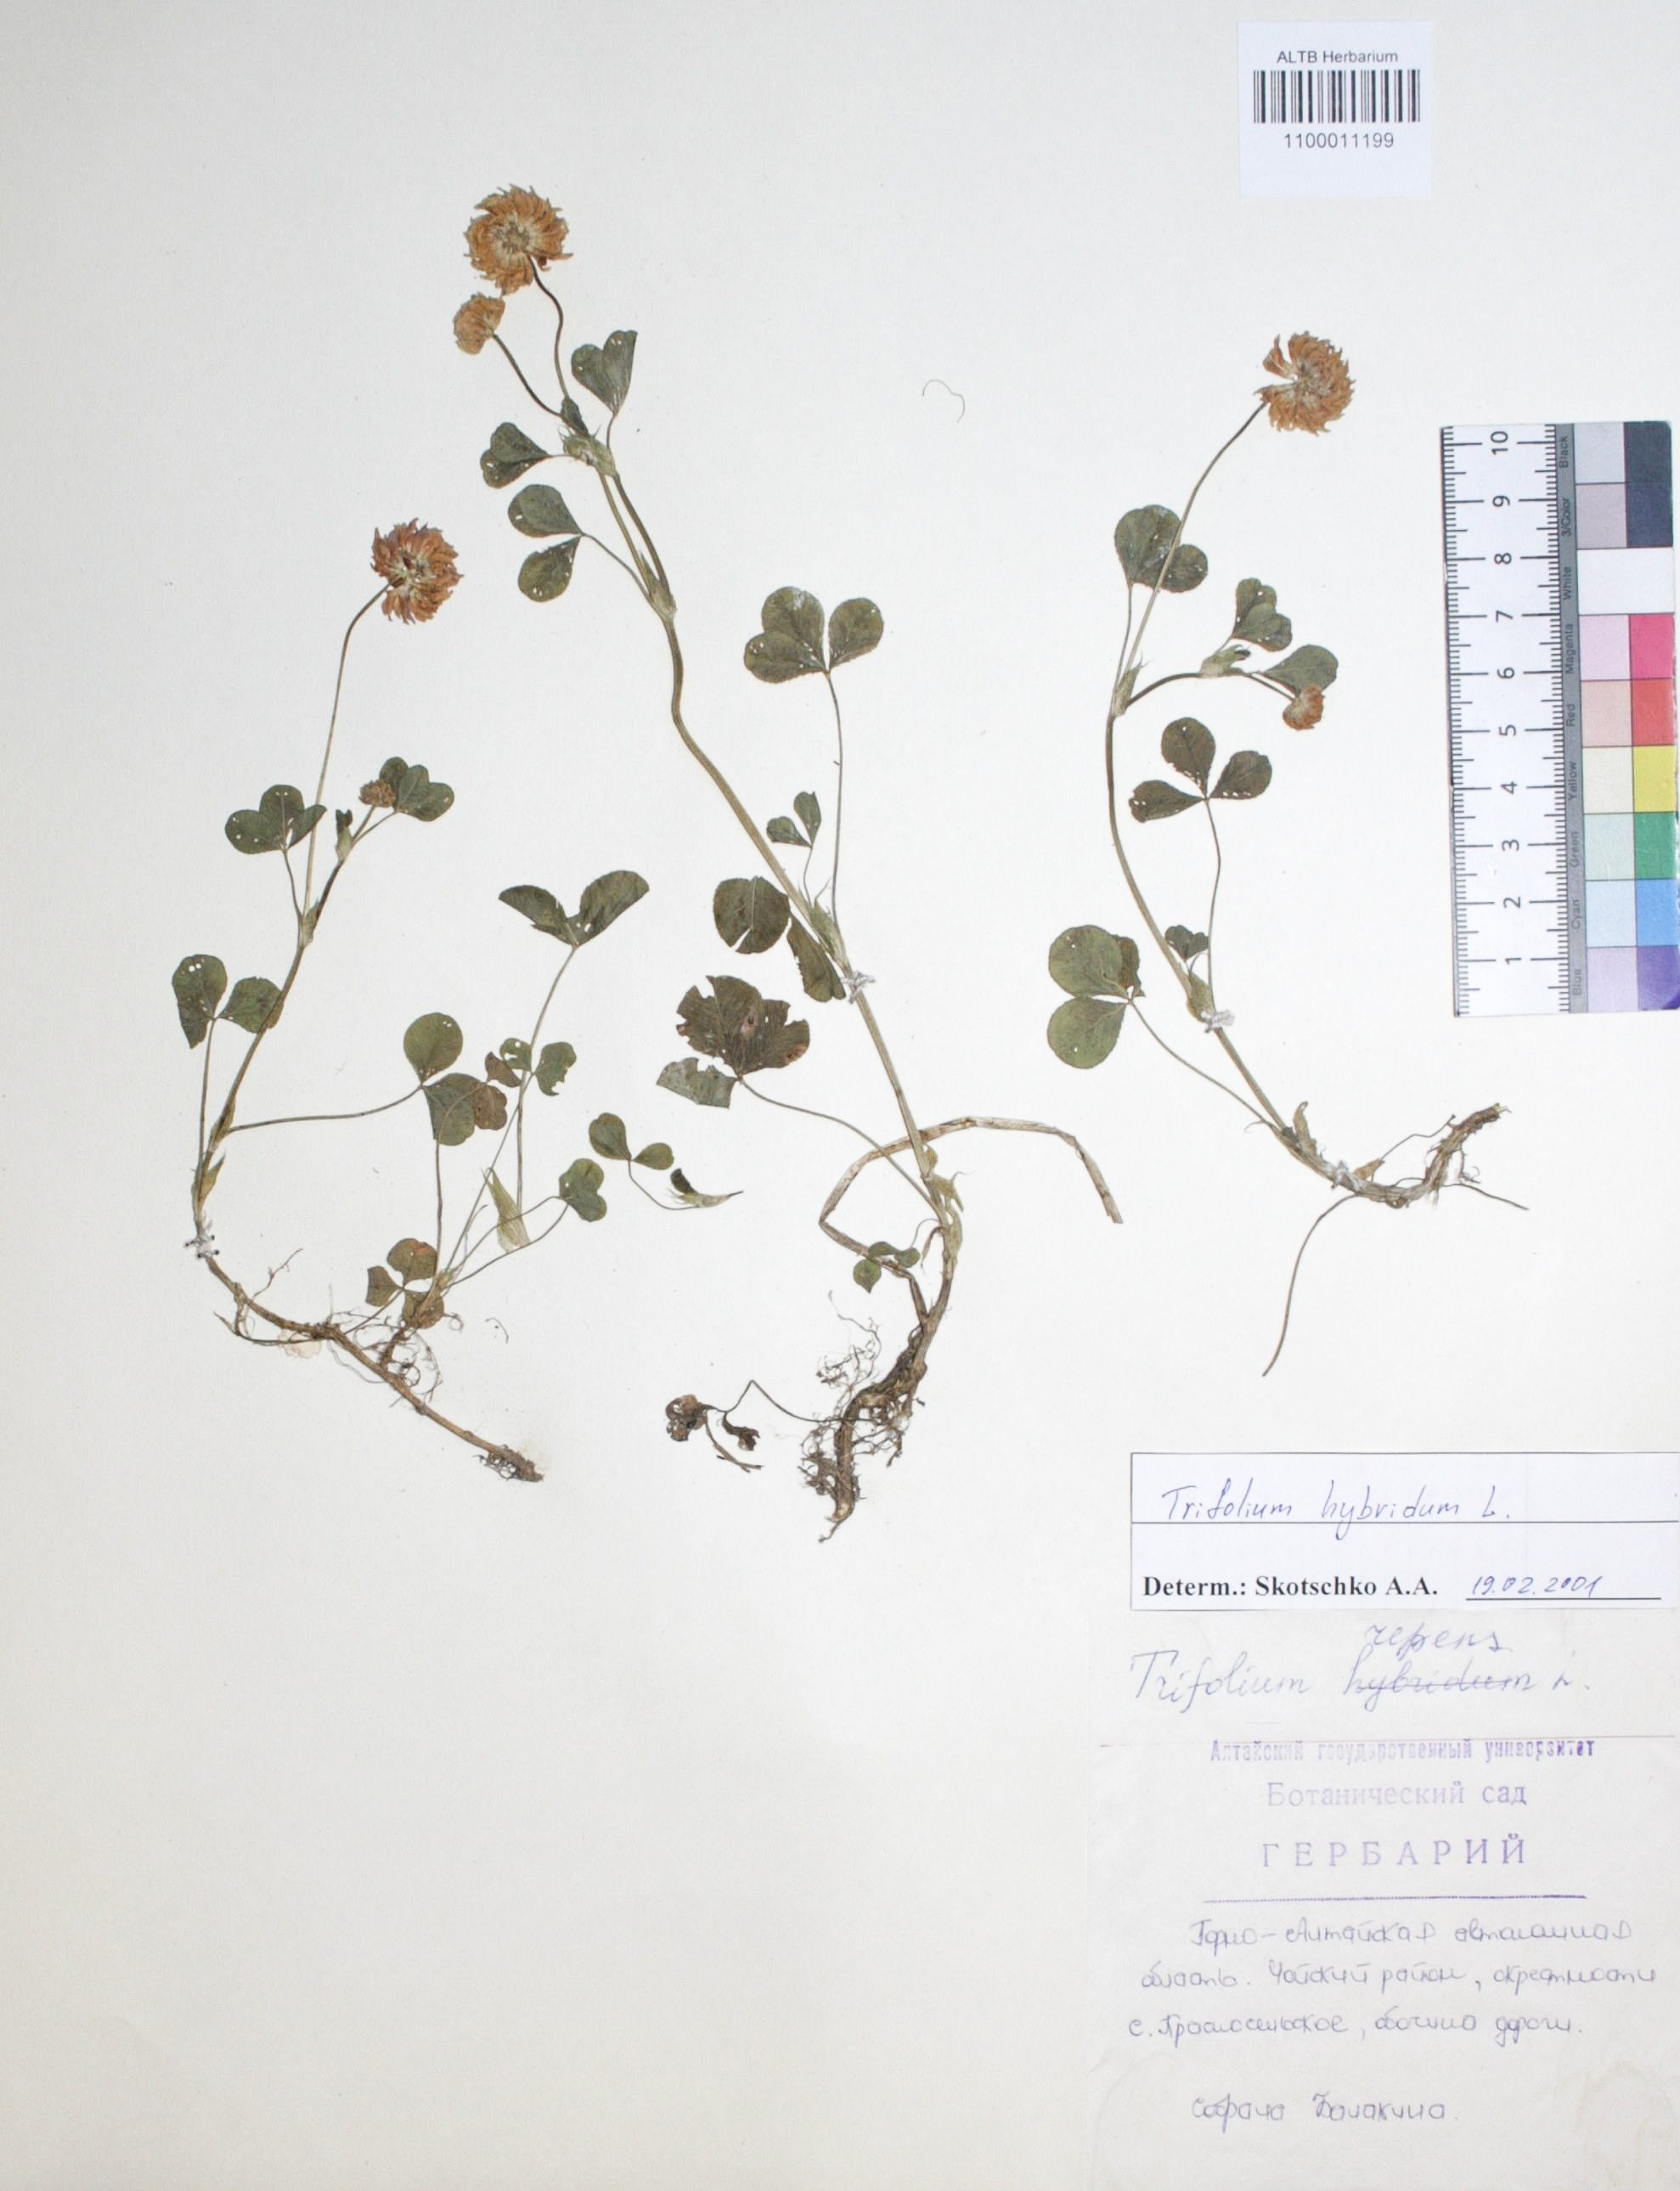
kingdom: Plantae
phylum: Tracheophyta
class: Magnoliopsida
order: Fabales
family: Fabaceae
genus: Trifolium
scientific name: Trifolium repens
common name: White clover
